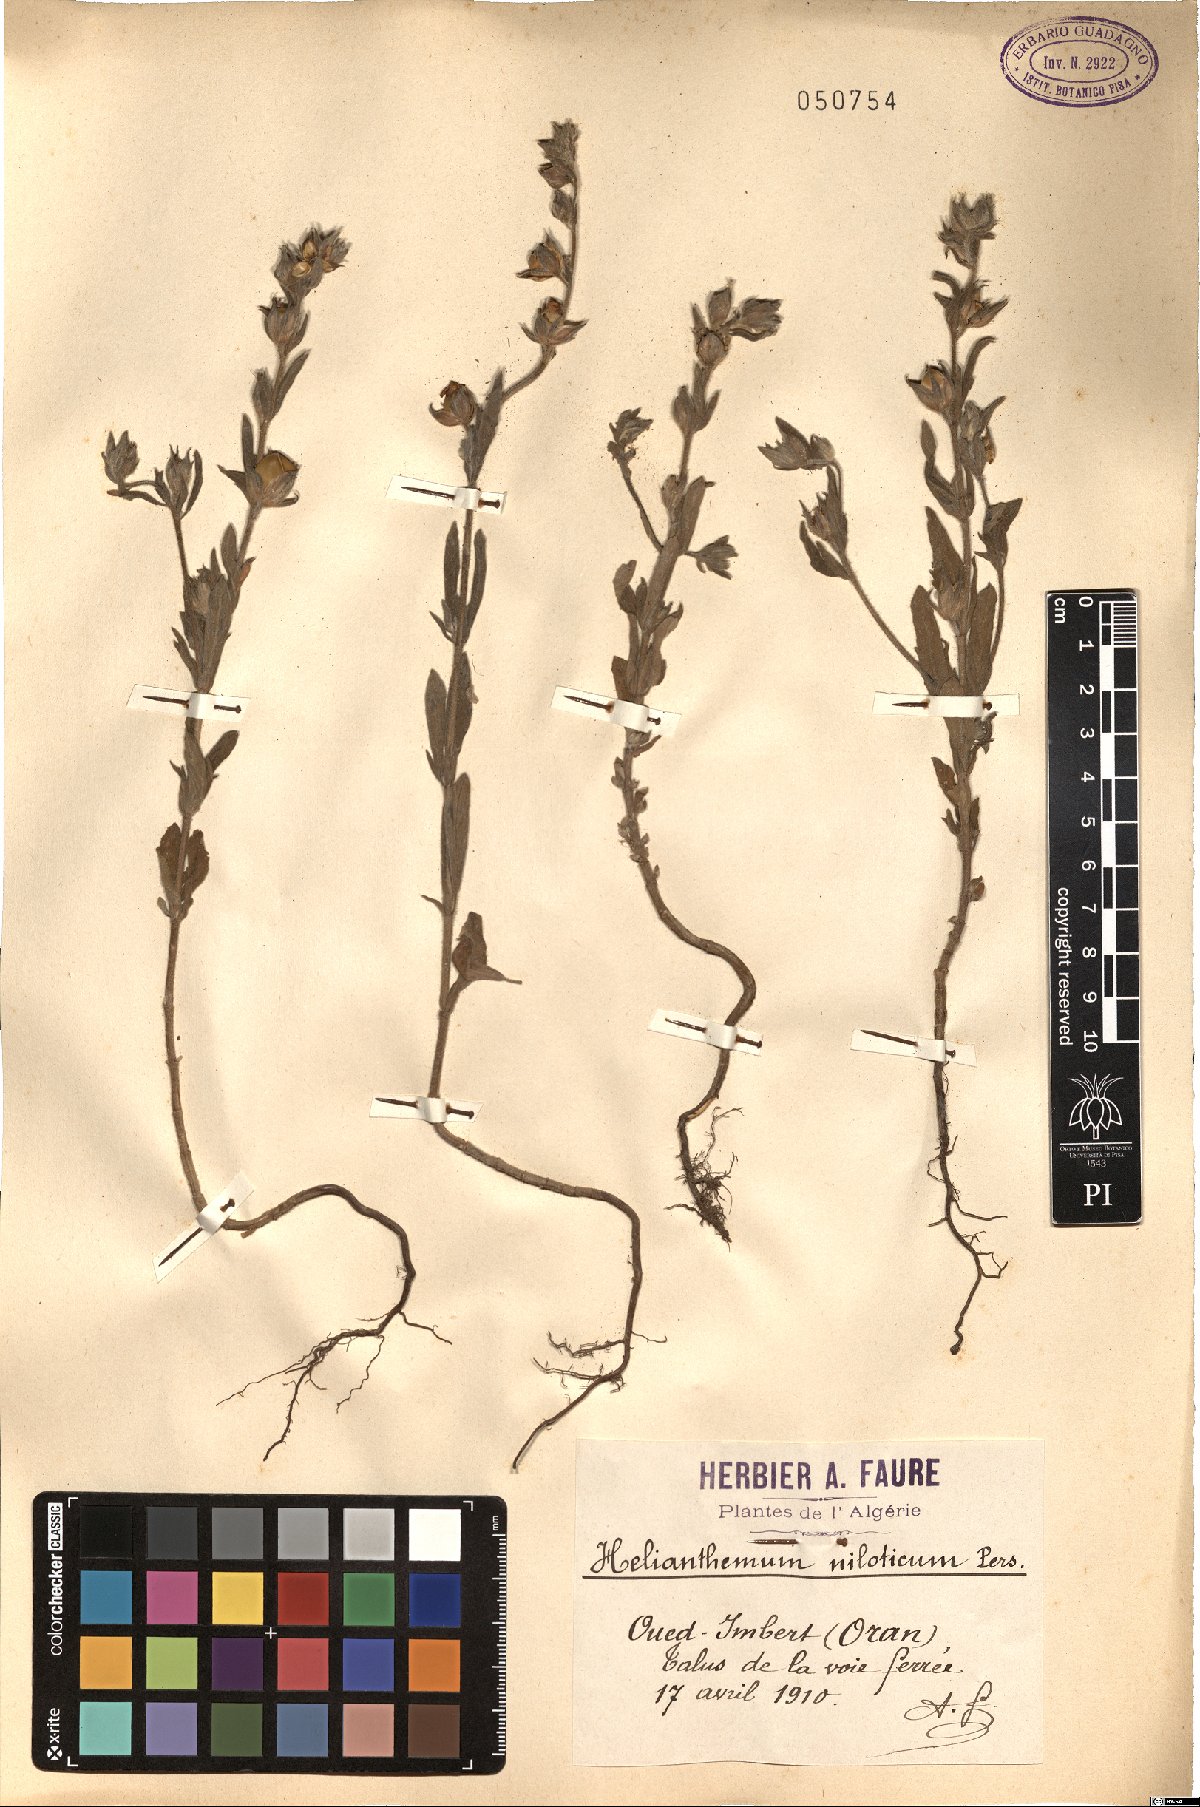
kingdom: Plantae
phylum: Tracheophyta
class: Magnoliopsida
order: Malvales
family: Cistaceae
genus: Helianthemum
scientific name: Helianthemum ledifolium
